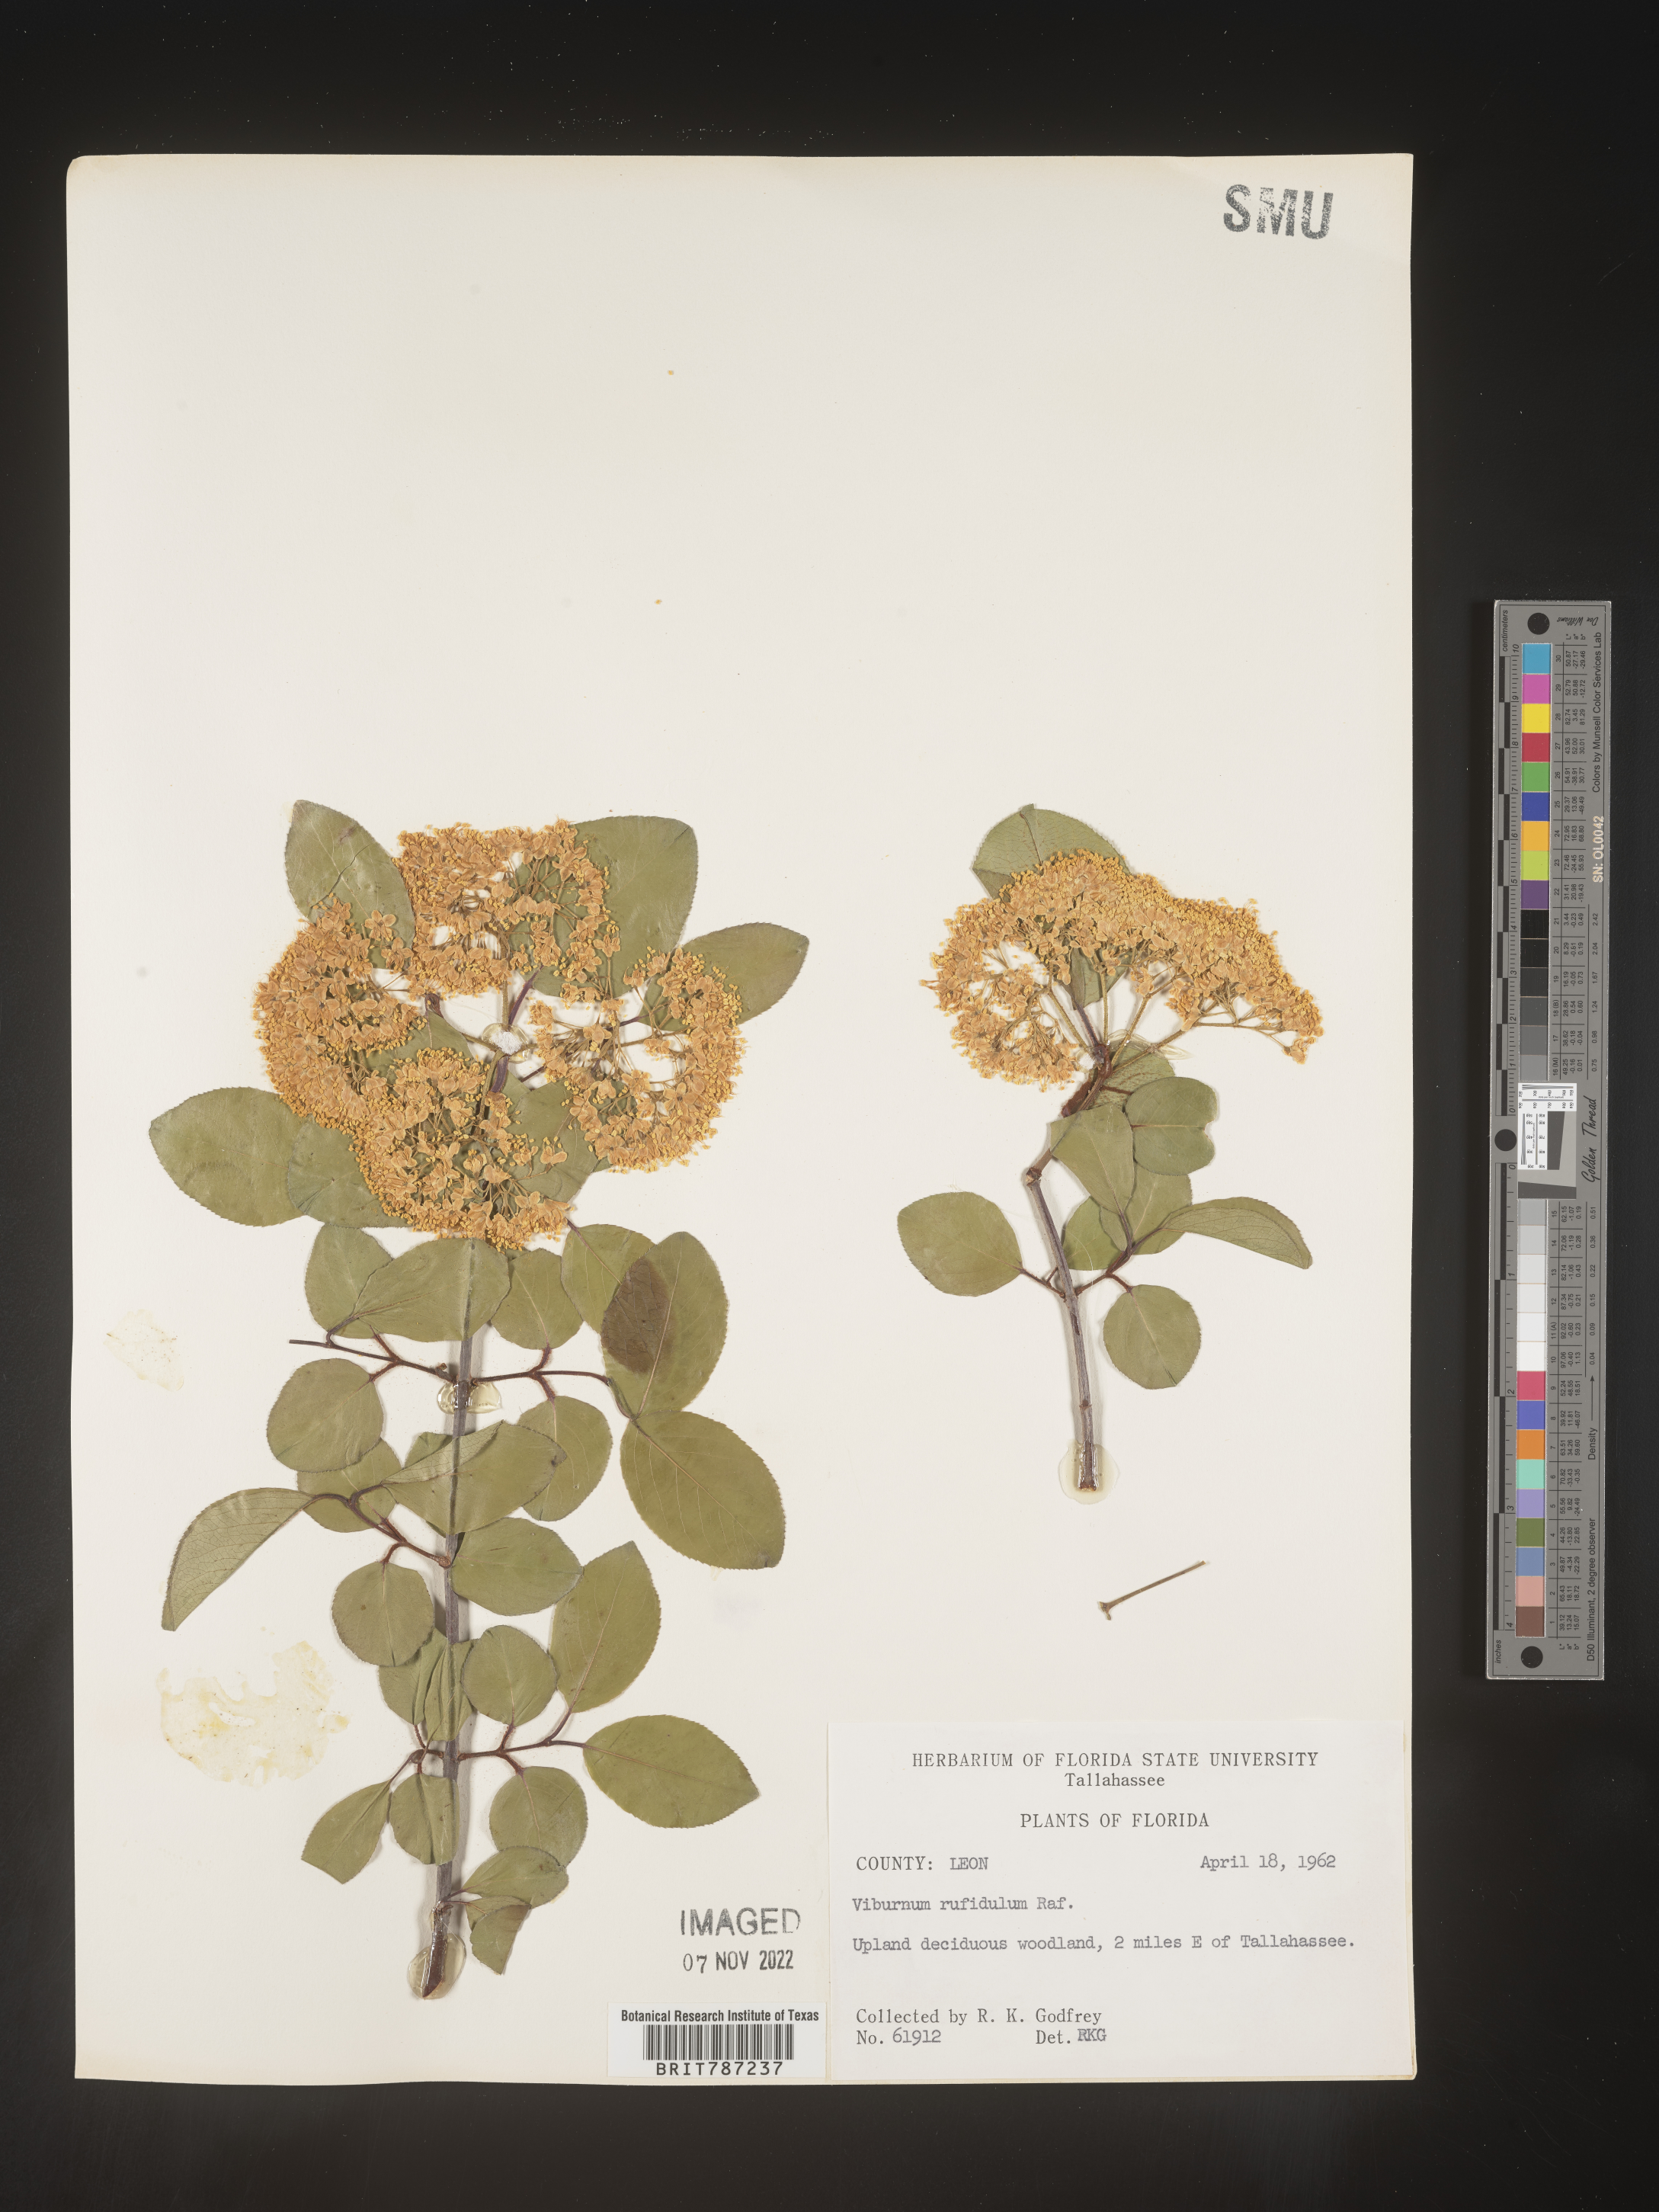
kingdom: Plantae
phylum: Tracheophyta
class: Magnoliopsida
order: Dipsacales
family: Viburnaceae
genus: Viburnum
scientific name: Viburnum rufidulum
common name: Blue haw
